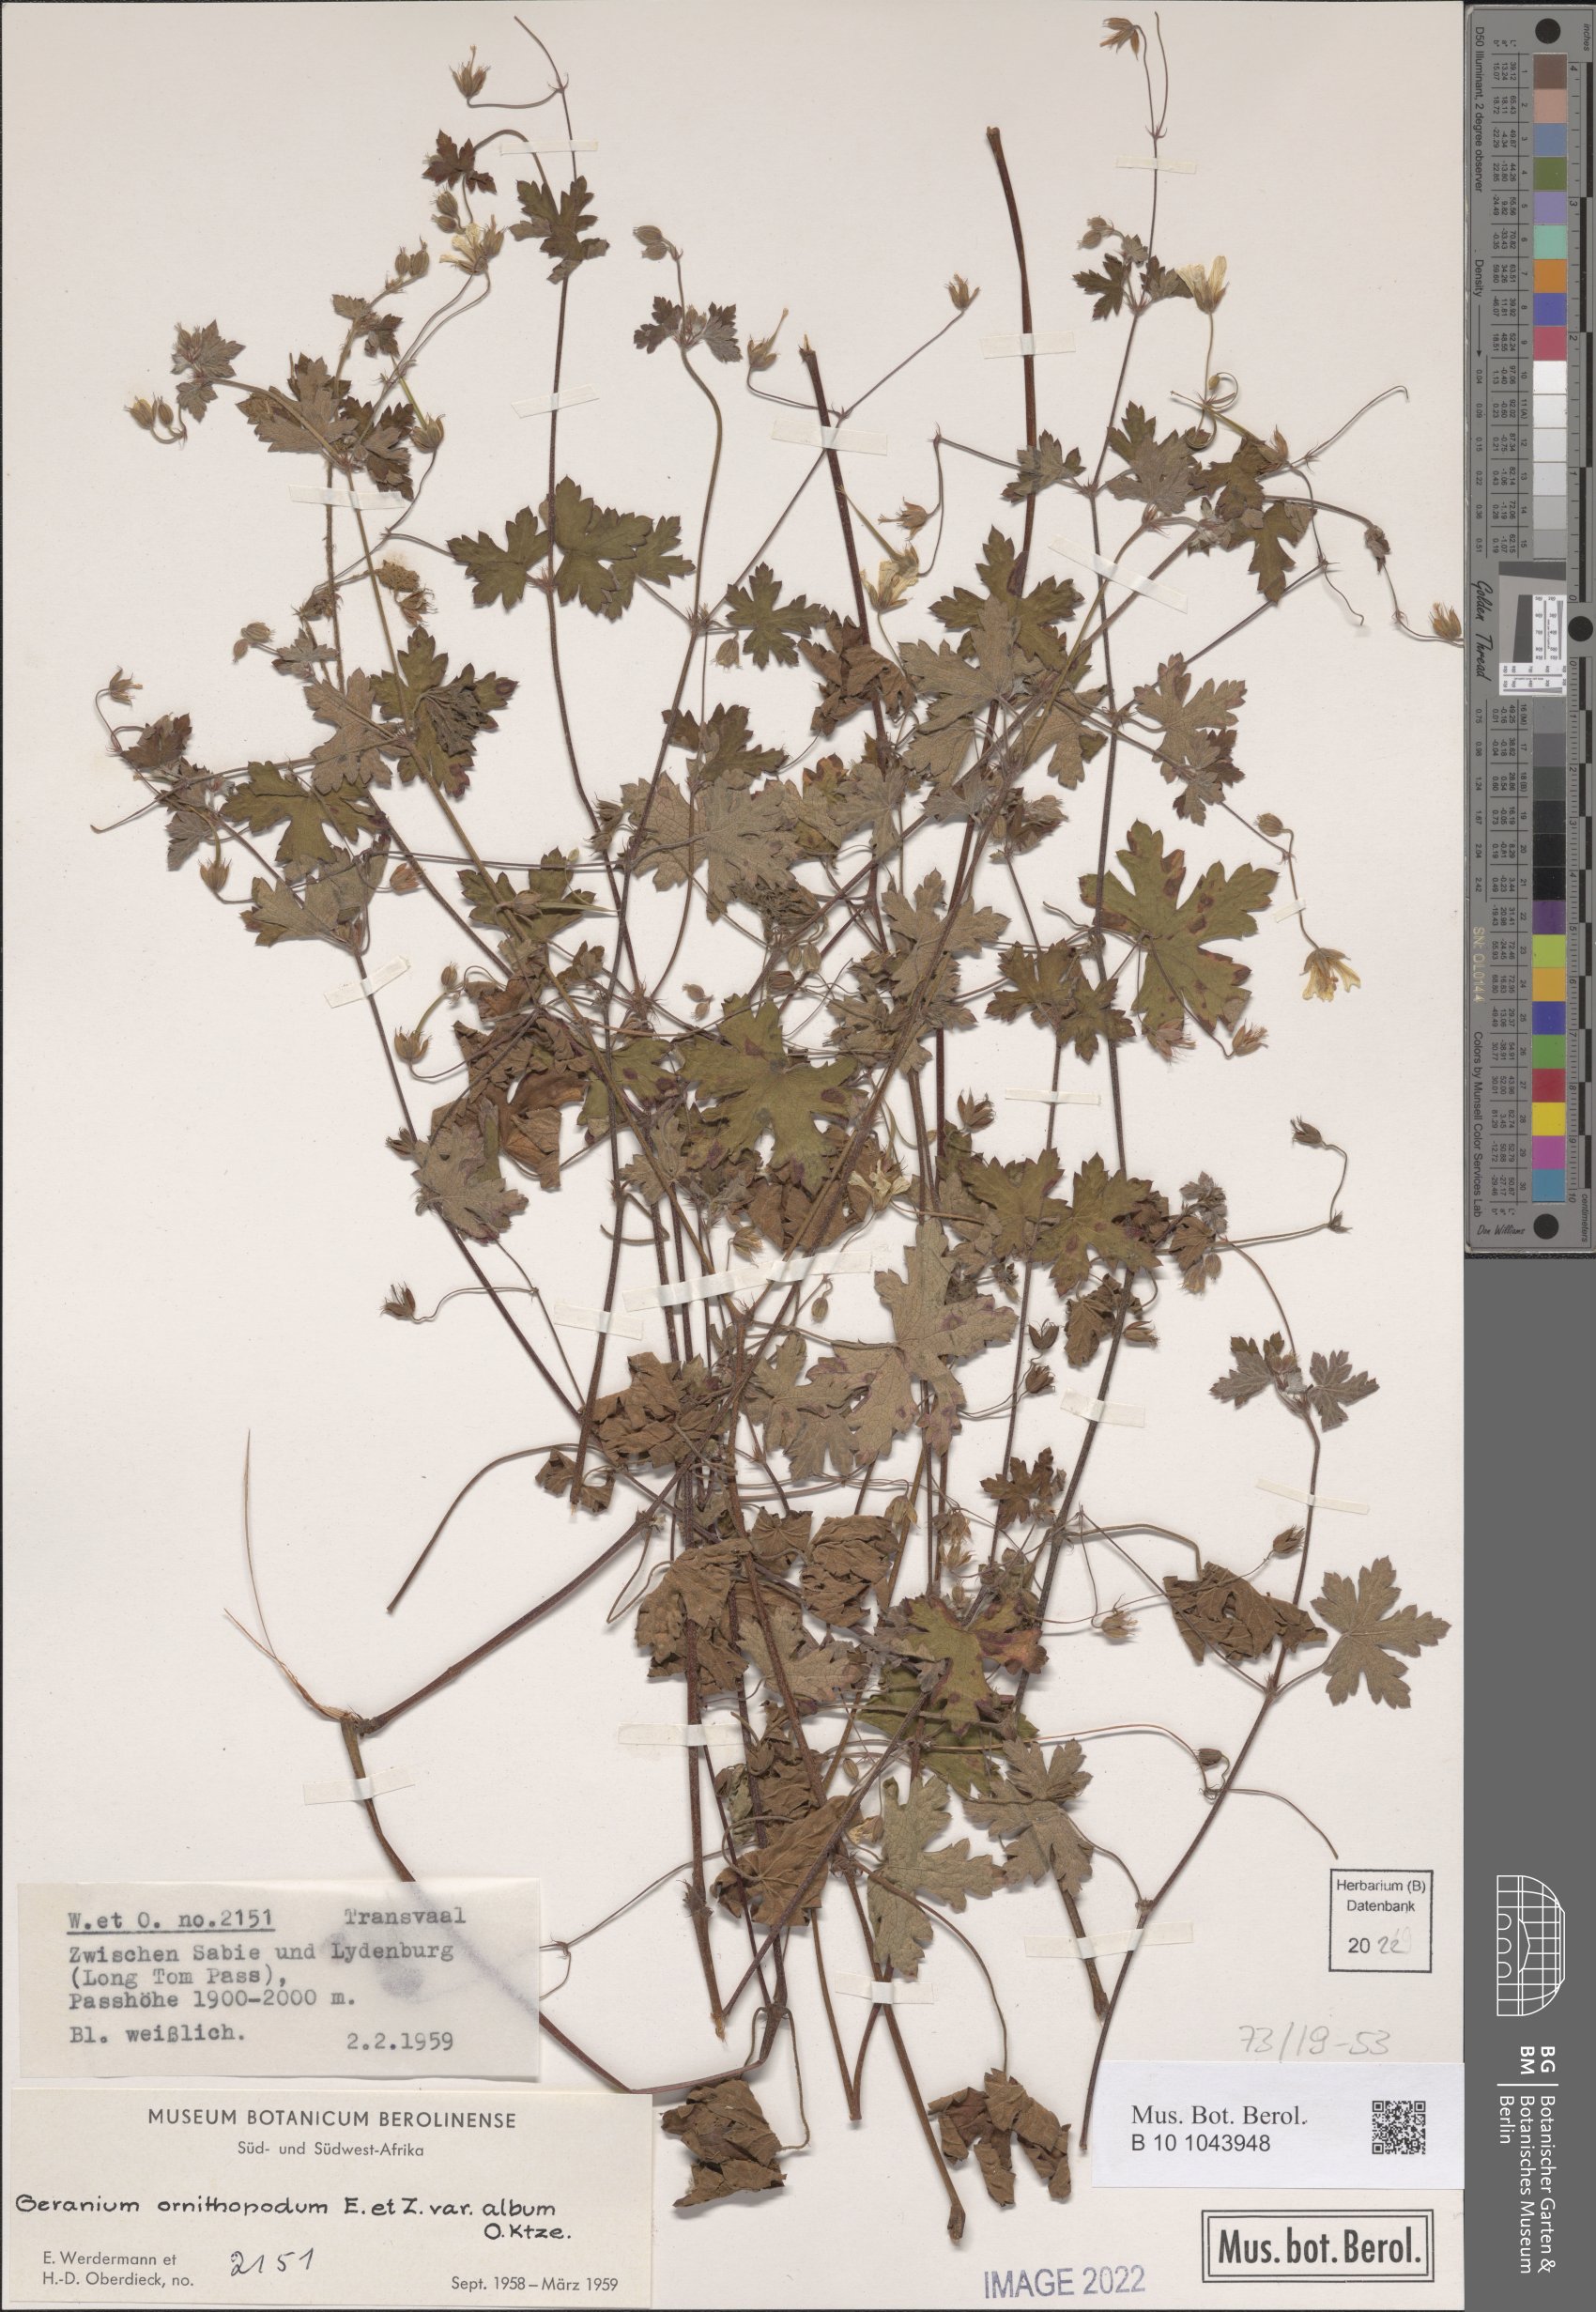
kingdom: Plantae
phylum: Tracheophyta
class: Magnoliopsida
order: Geraniales
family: Geraniaceae
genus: Geranium
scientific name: Geranium wakkerstroomianum
